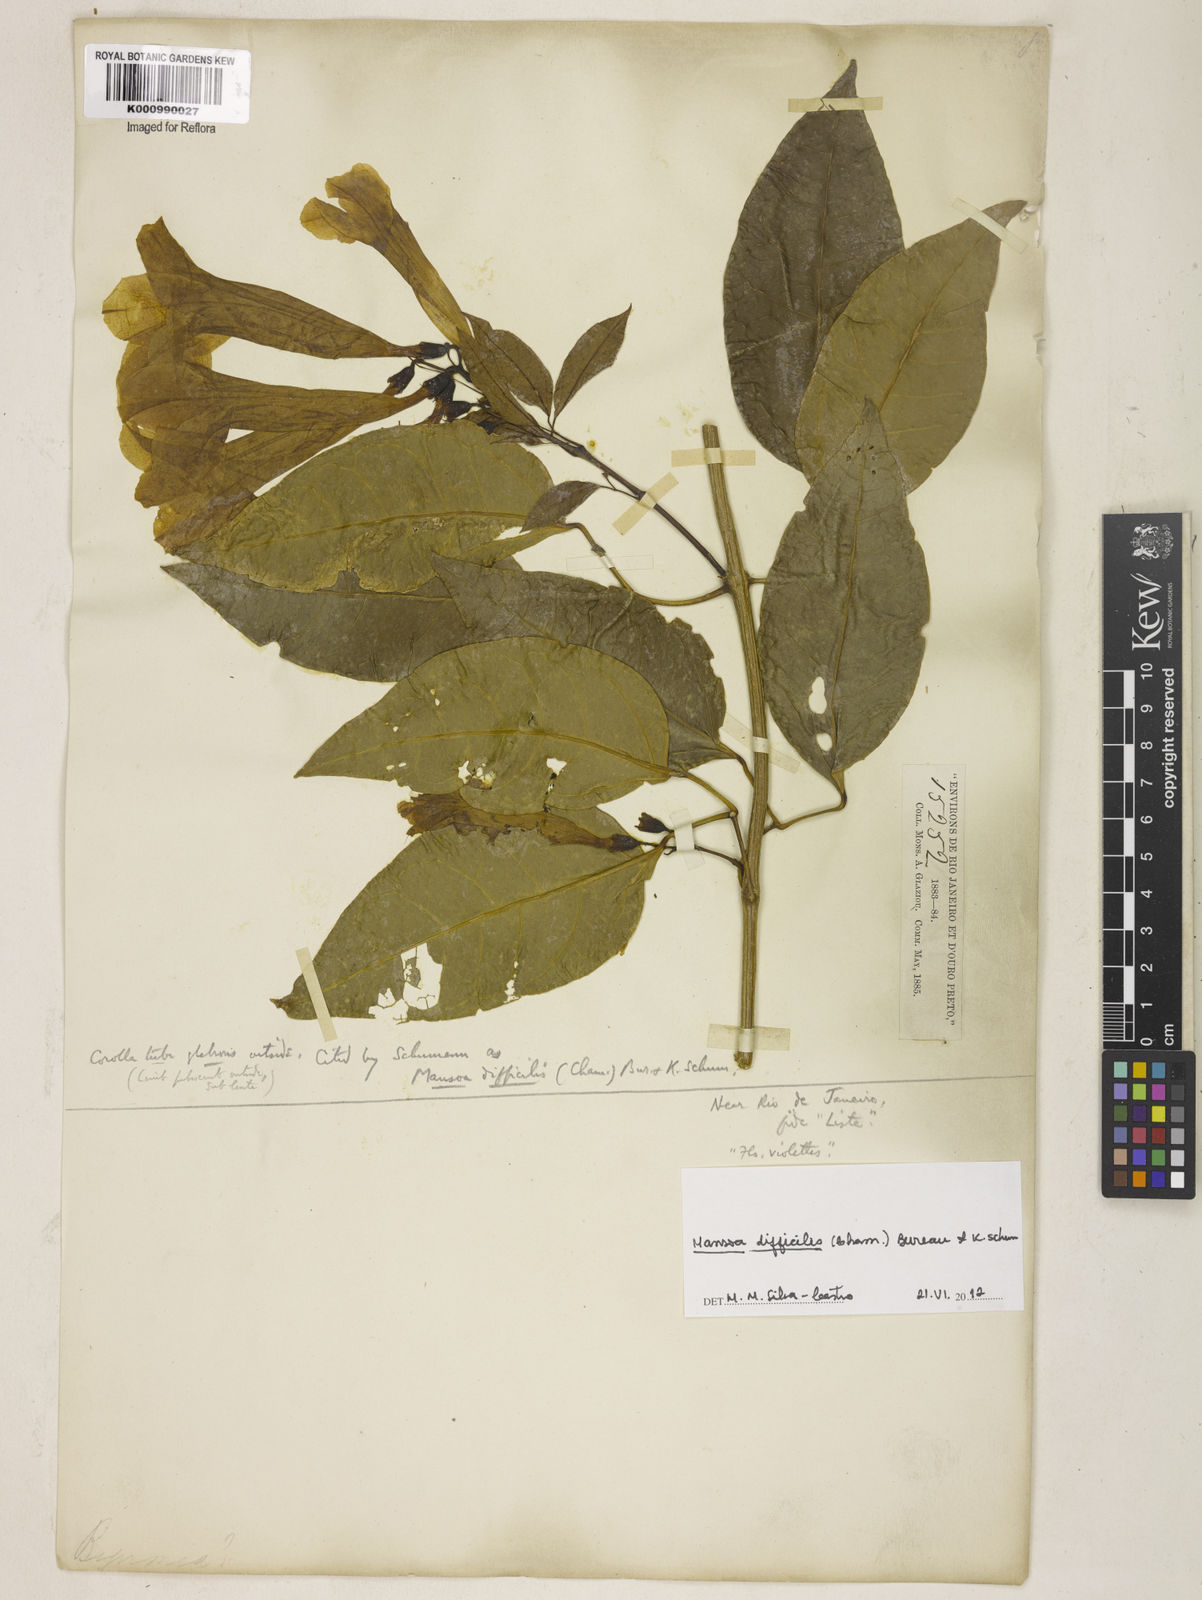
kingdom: Plantae
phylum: Tracheophyta
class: Magnoliopsida
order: Lamiales
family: Bignoniaceae
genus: Mansoa
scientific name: Mansoa difficilis
